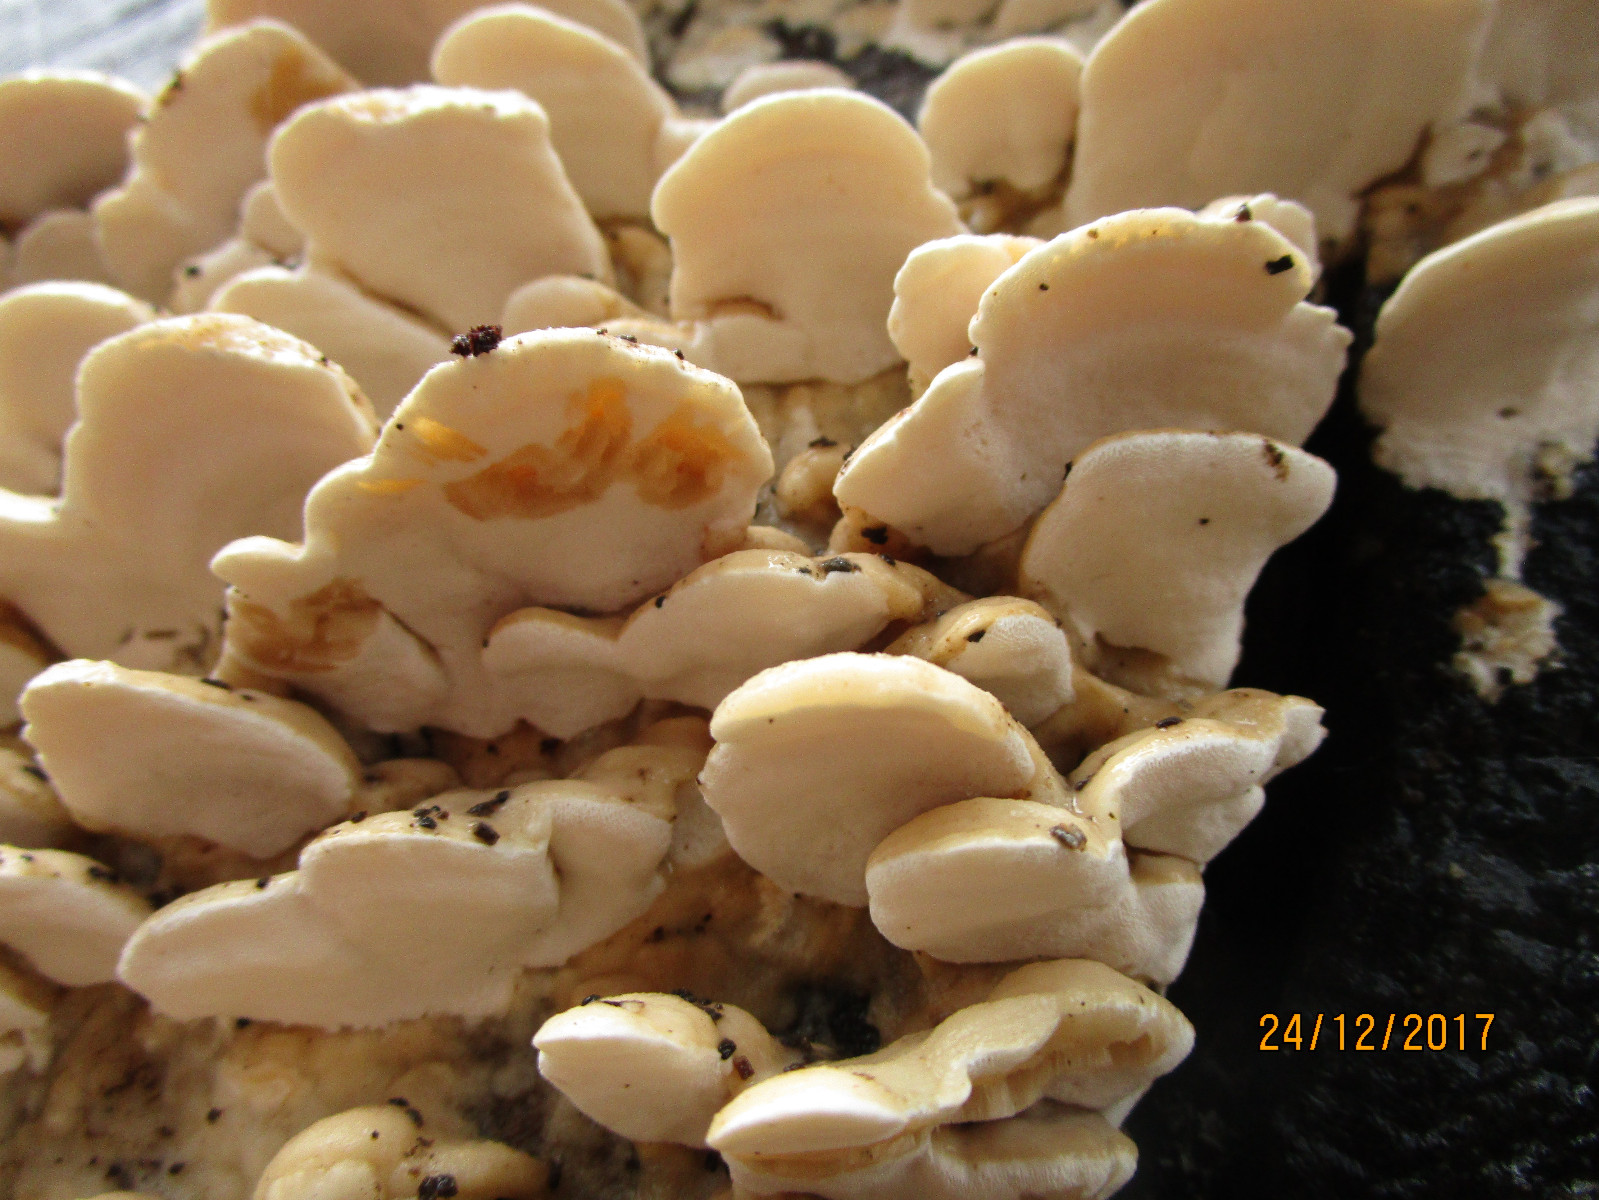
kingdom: Fungi
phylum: Basidiomycota
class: Agaricomycetes
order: Polyporales
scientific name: Polyporales
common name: poresvampordenen
